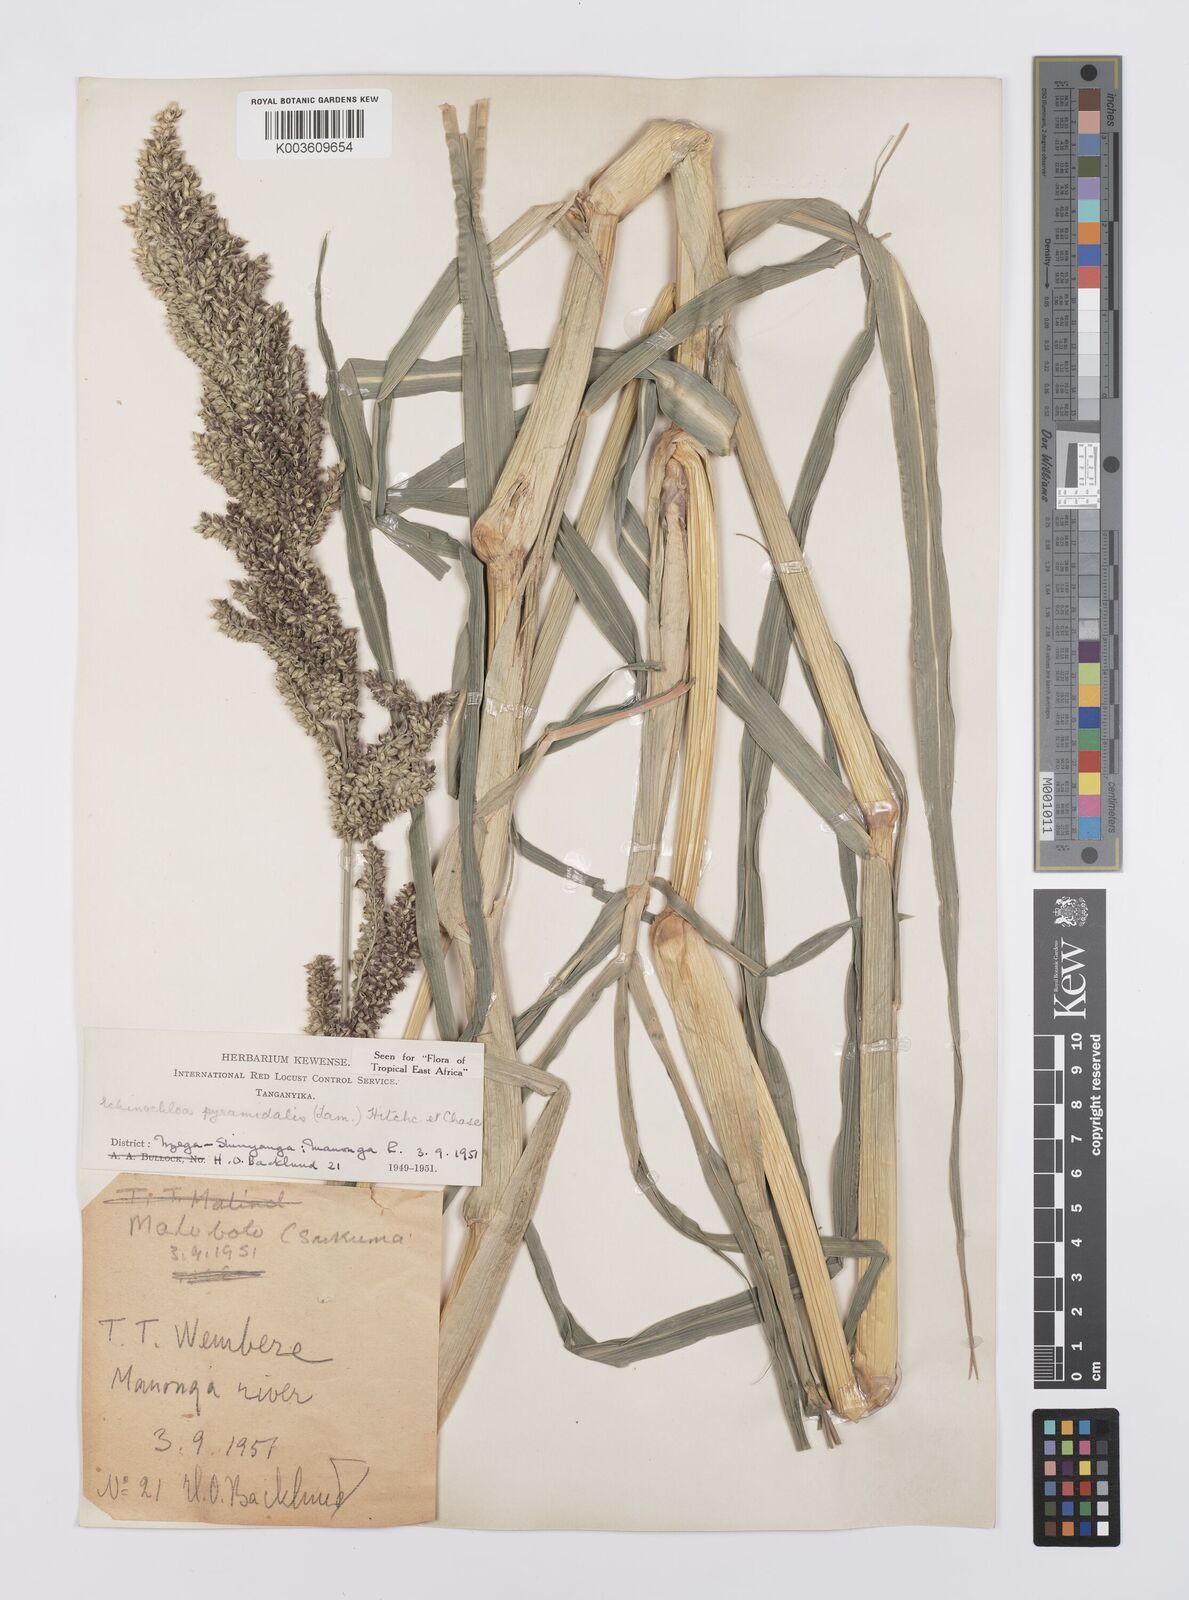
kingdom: Plantae
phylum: Tracheophyta
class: Liliopsida
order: Poales
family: Poaceae
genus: Echinochloa
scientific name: Echinochloa pyramidalis
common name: Antelope grass
